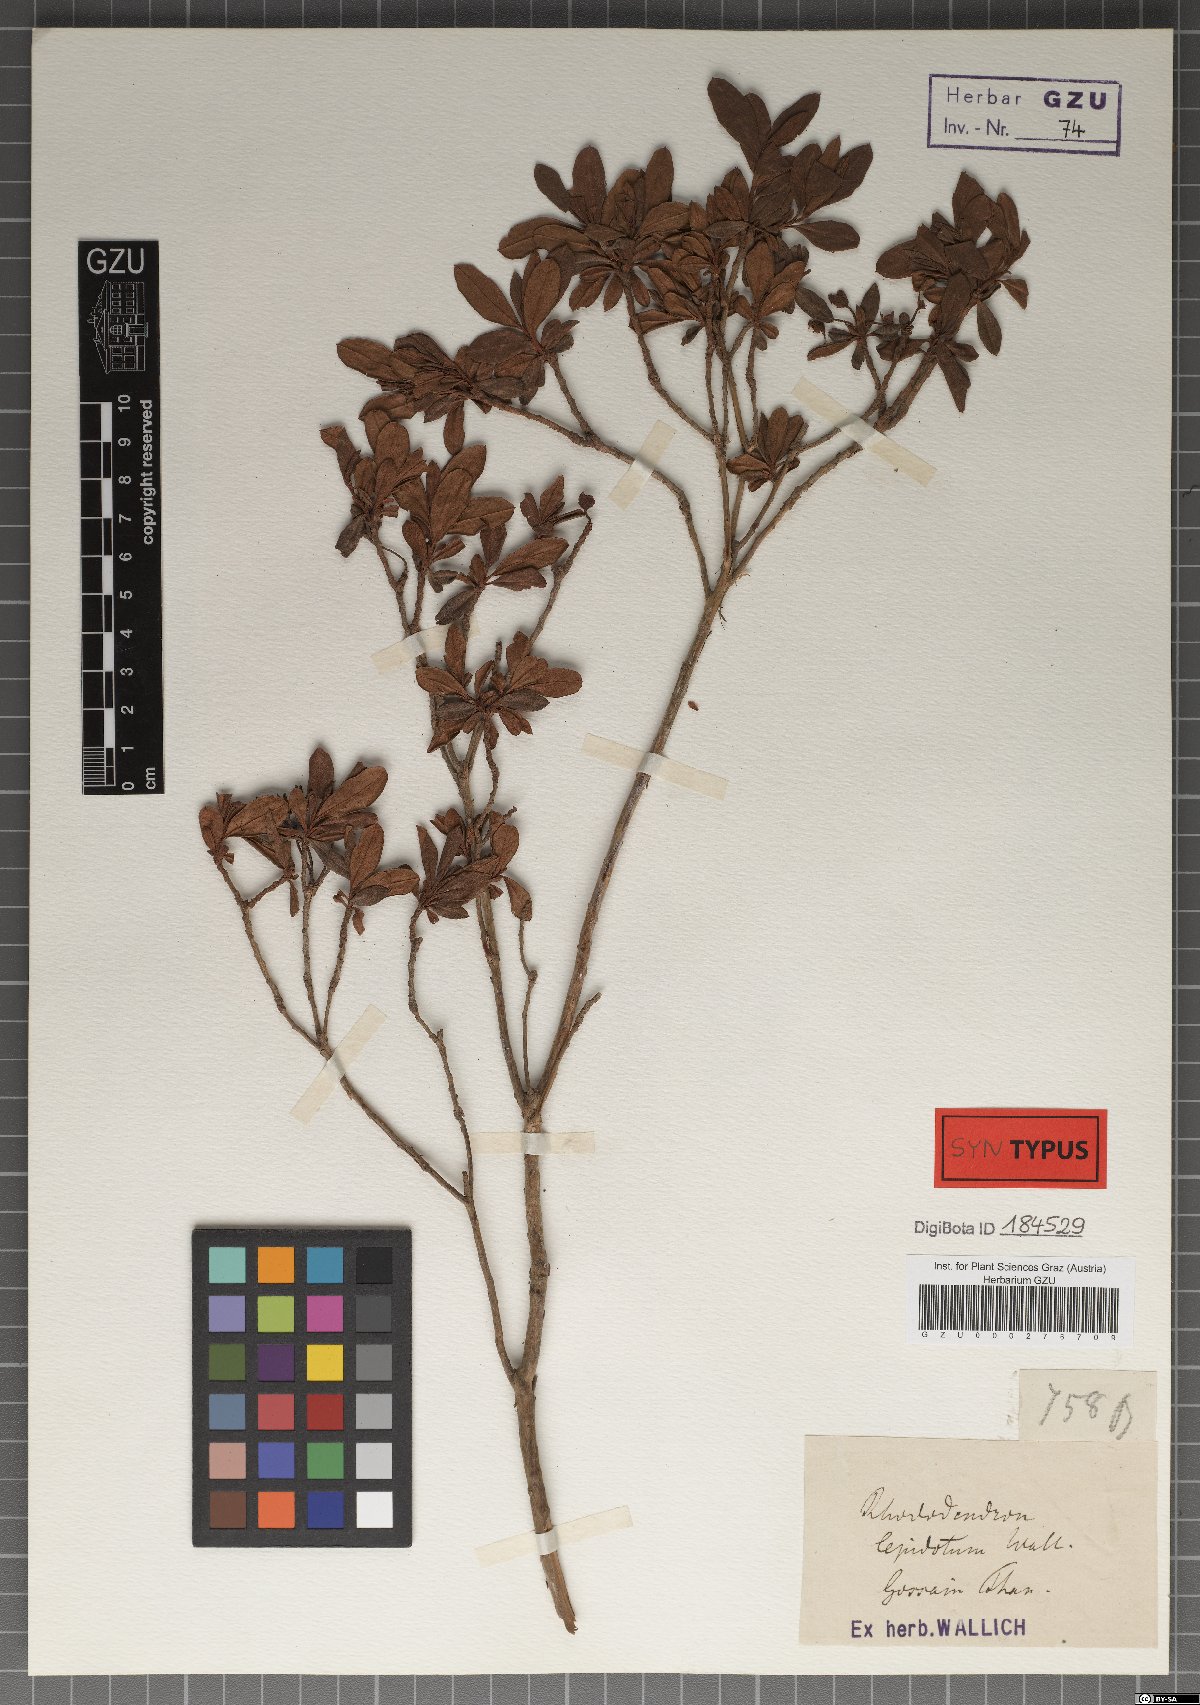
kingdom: Plantae
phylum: Tracheophyta
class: Magnoliopsida
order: Ericales
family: Ericaceae
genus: Rhododendron
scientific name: Rhododendron lepidotum
